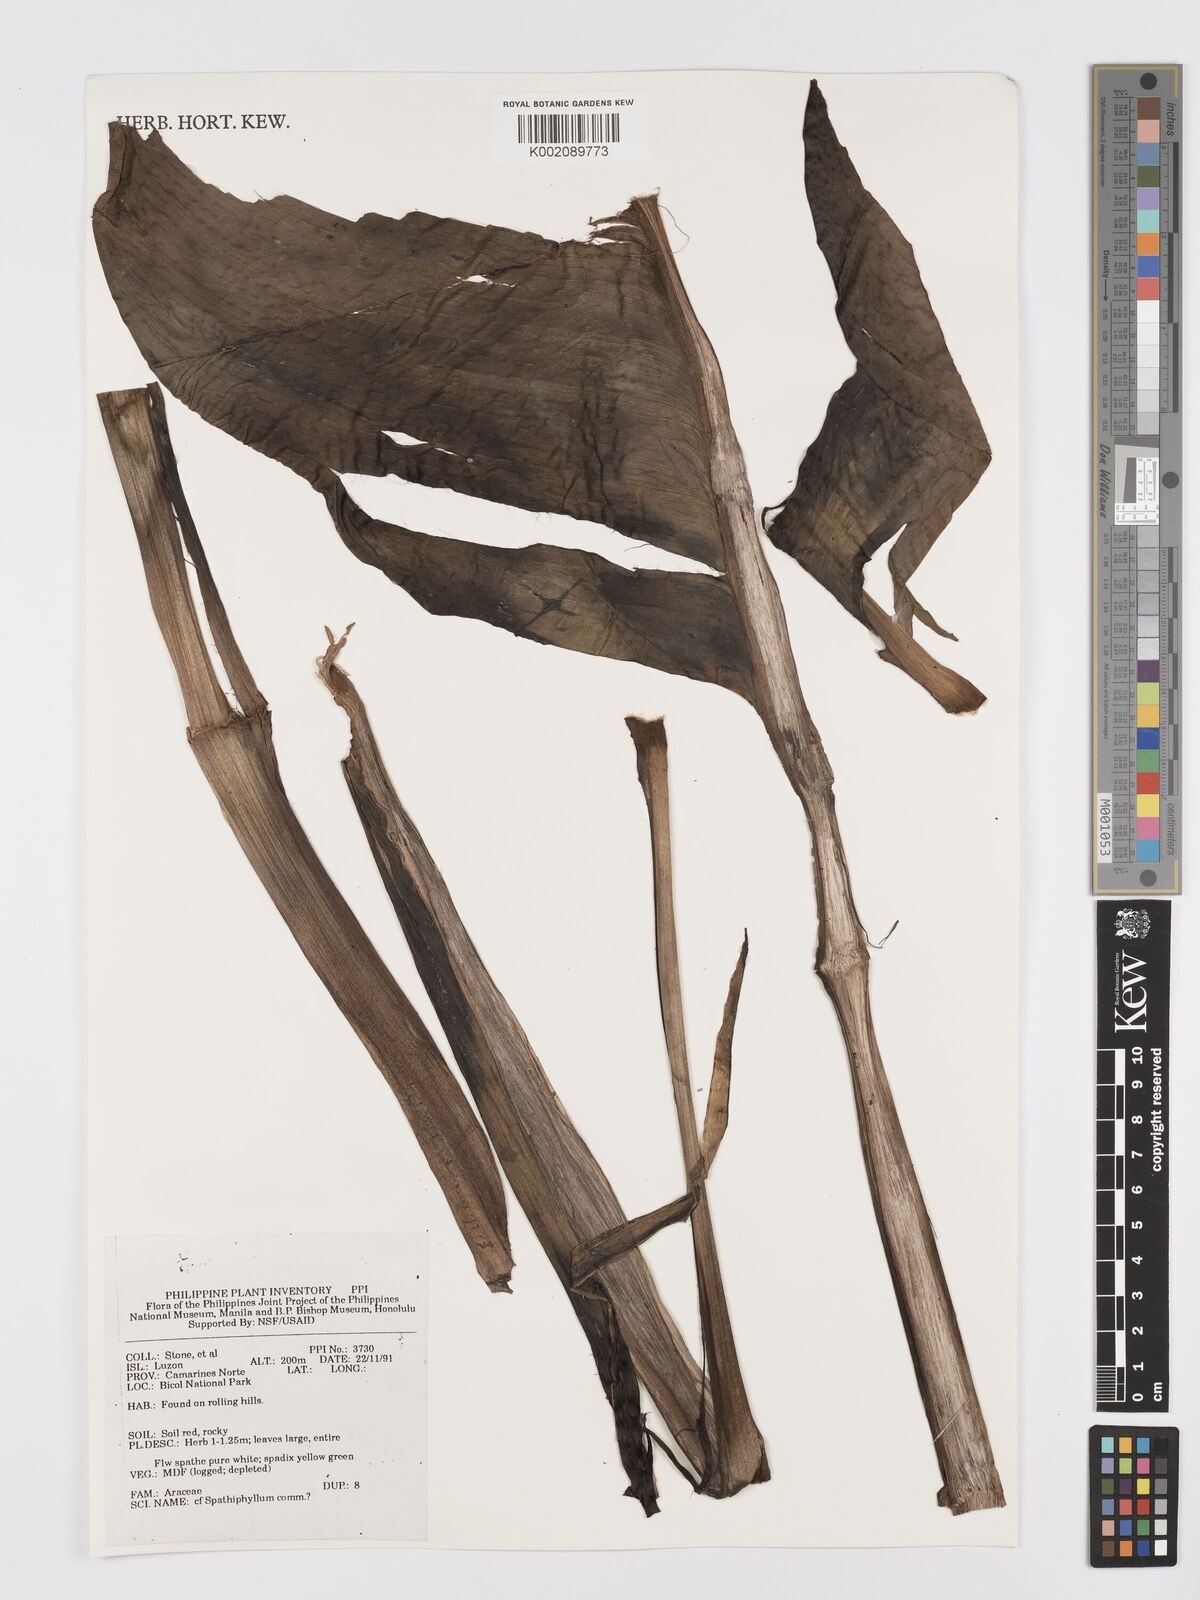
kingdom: Plantae
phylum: Tracheophyta
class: Liliopsida
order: Alismatales
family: Araceae
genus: Spathiphyllum
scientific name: Spathiphyllum commutatum
